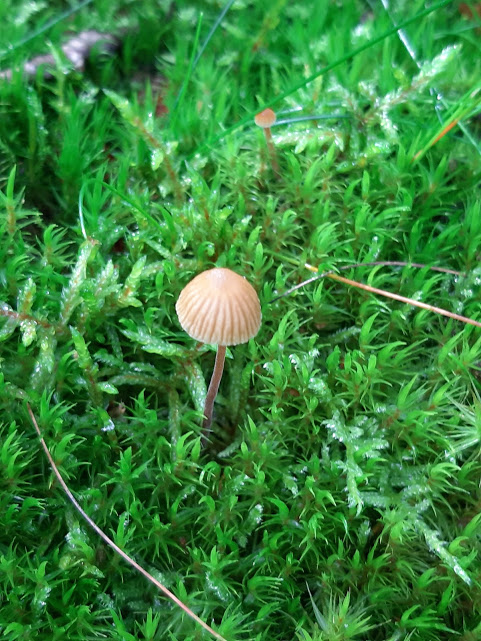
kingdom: Fungi
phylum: Basidiomycota
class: Agaricomycetes
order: Agaricales
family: Hymenogastraceae
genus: Galerina
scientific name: Galerina
